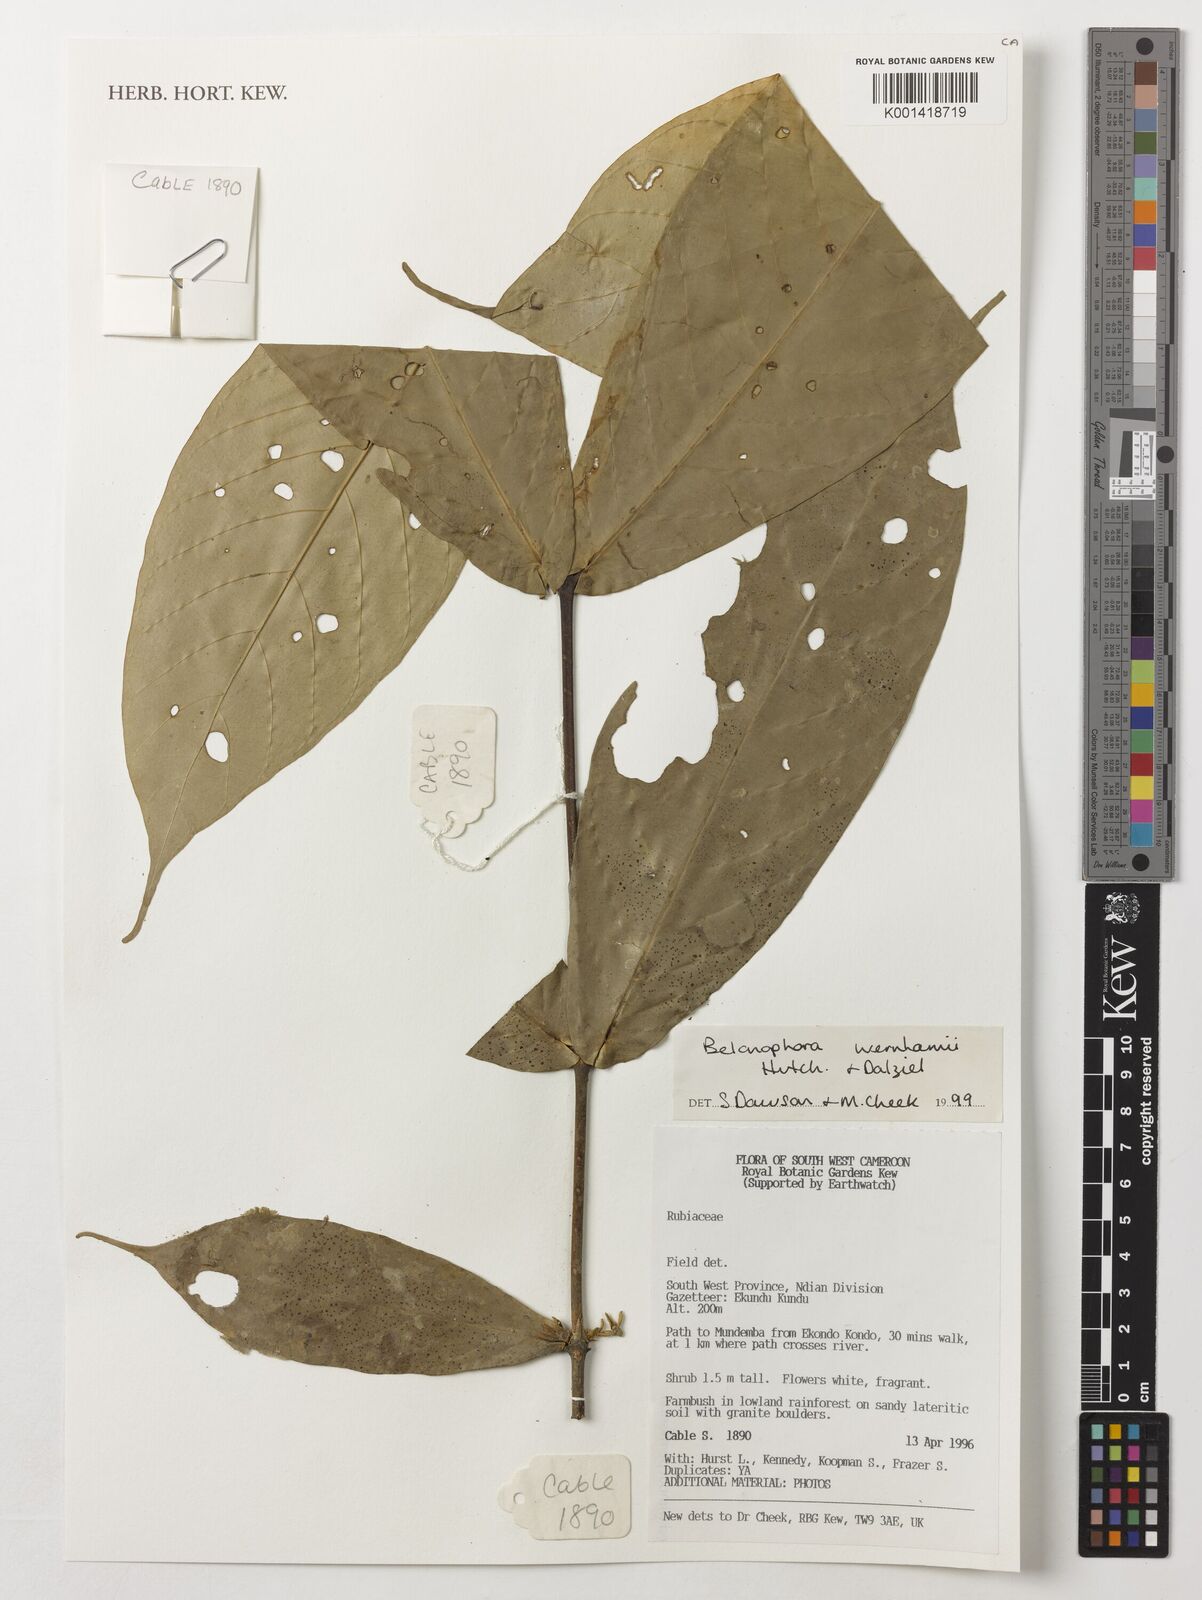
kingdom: Plantae
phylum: Tracheophyta
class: Magnoliopsida
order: Gentianales
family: Rubiaceae
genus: Belonophora
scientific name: Belonophora wernhamii
